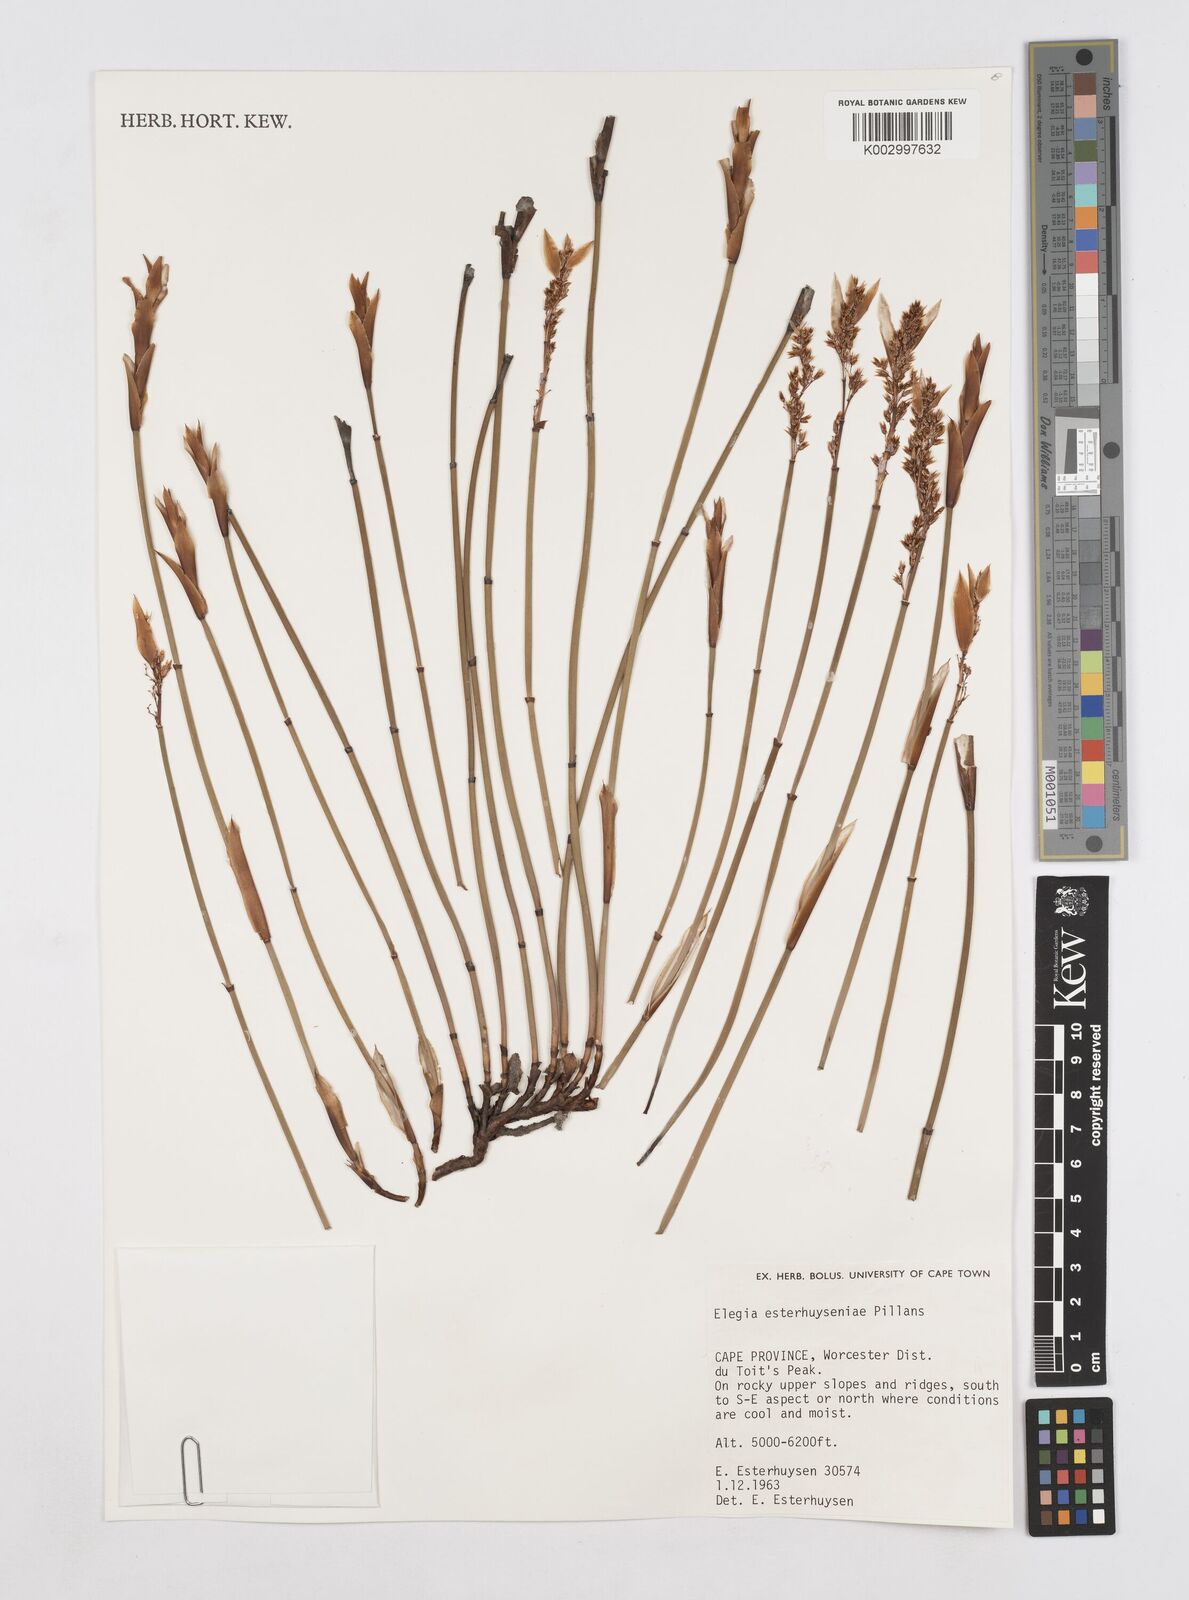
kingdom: Plantae
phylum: Tracheophyta
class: Liliopsida
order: Poales
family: Restionaceae
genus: Elegia
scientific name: Elegia esterhuyseniae
